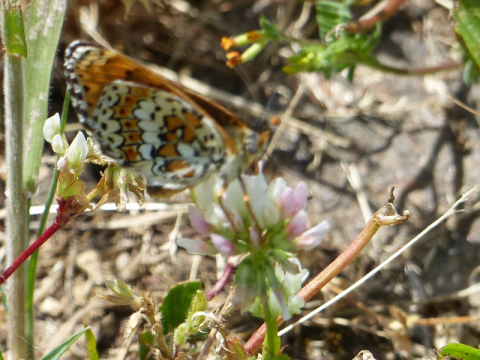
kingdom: Animalia
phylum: Arthropoda
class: Insecta
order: Lepidoptera
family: Nymphalidae
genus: Melitaea
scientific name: Melitaea cinxia
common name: Glanville Fritillary
